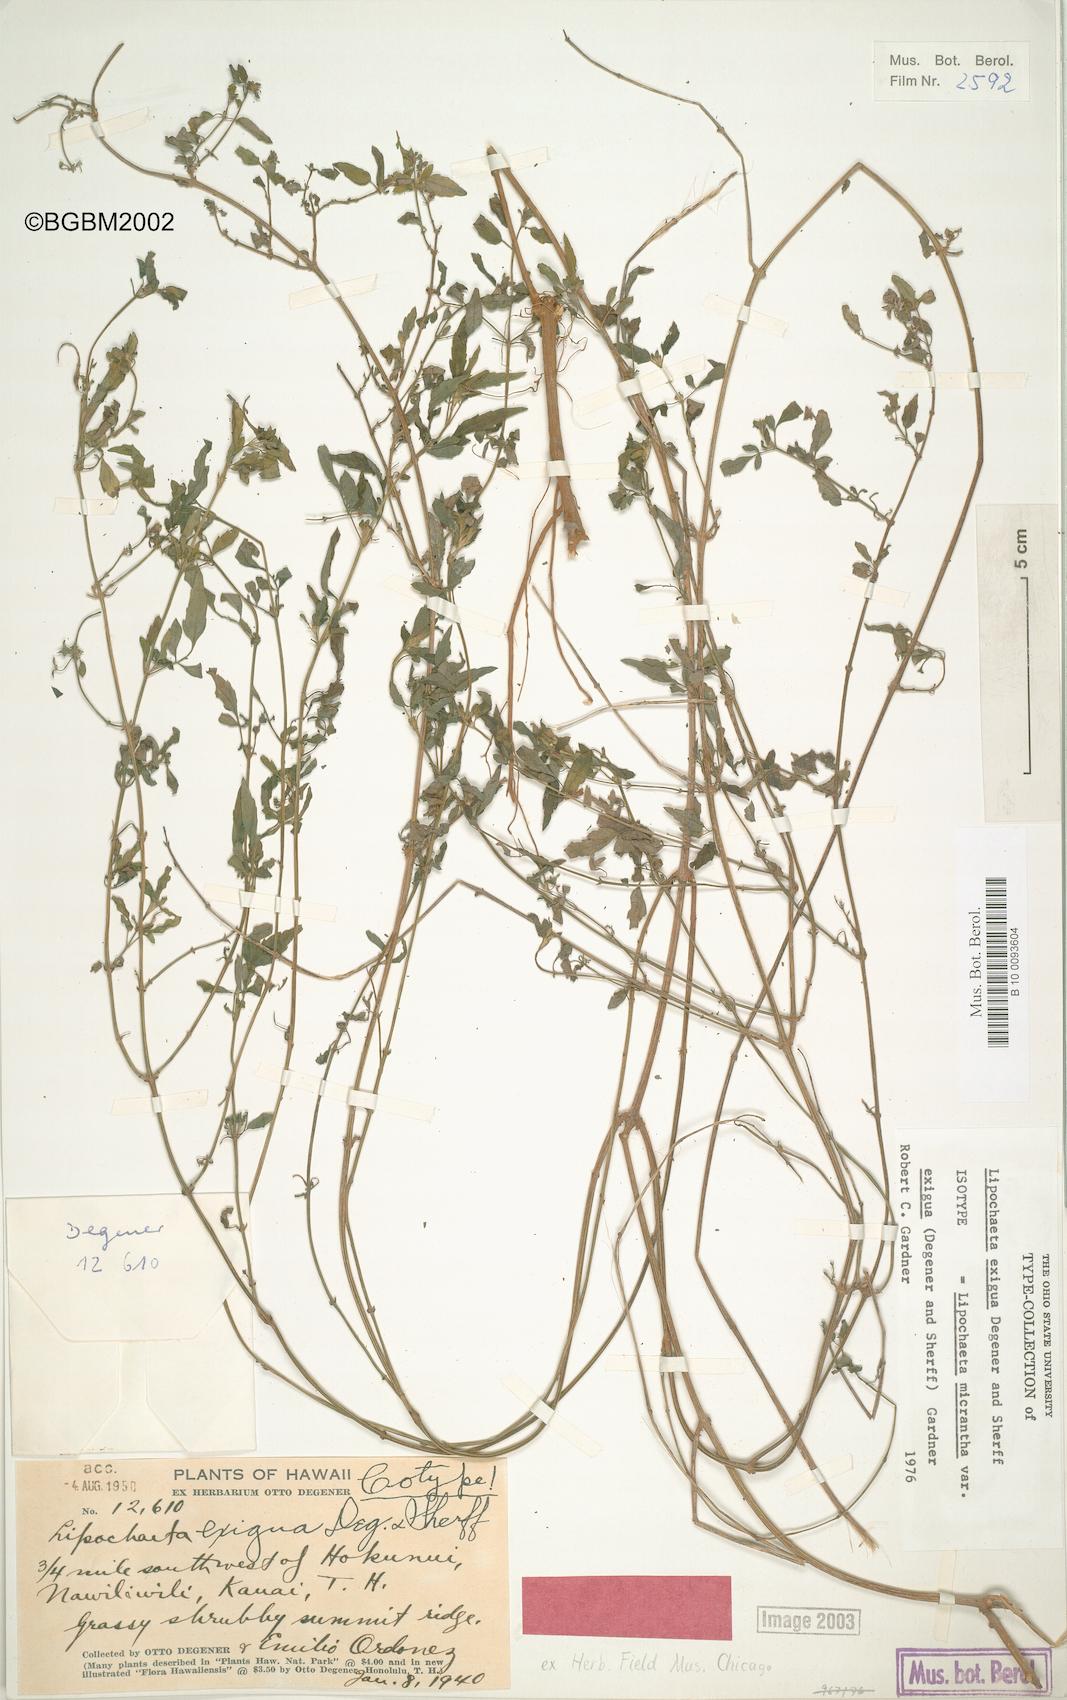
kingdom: Plantae
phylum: Tracheophyta
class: Magnoliopsida
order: Asterales
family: Asteraceae
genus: Lipochaeta
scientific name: Lipochaeta micrantha
